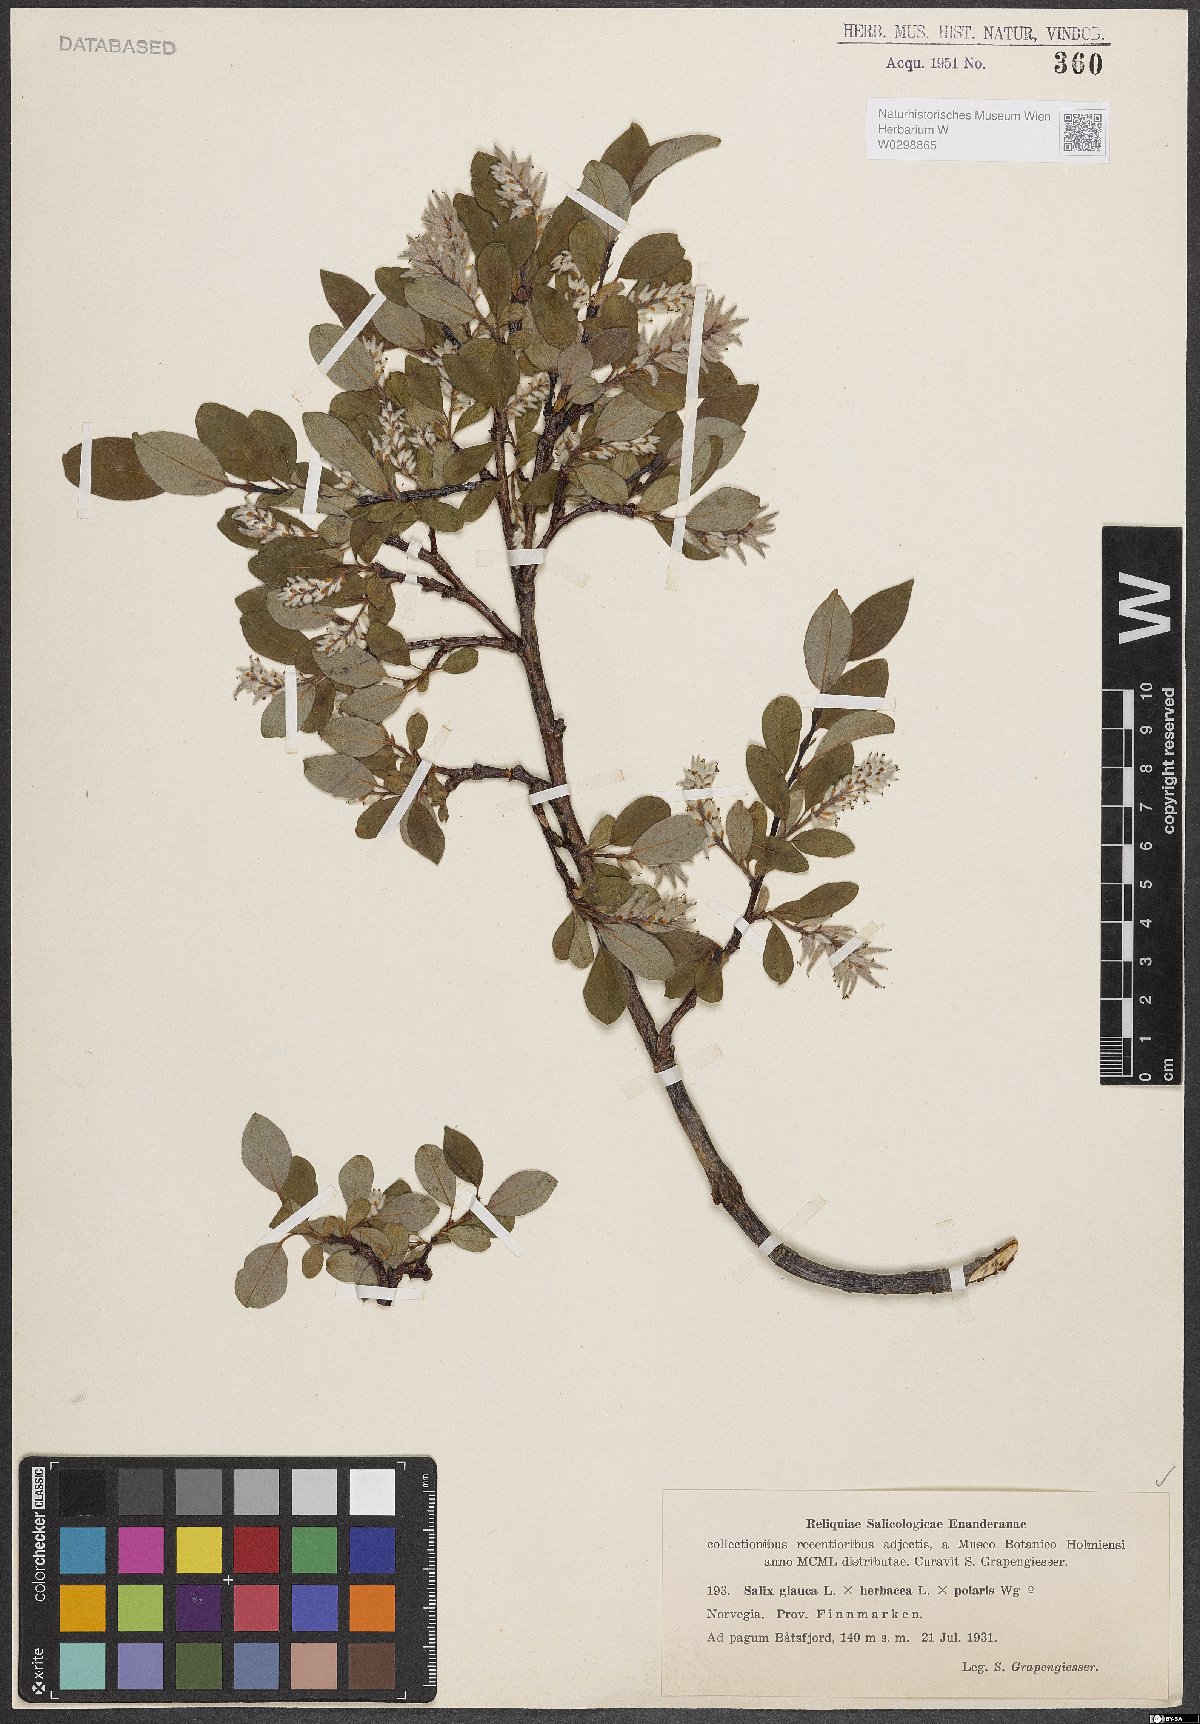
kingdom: Plantae
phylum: Tracheophyta
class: Magnoliopsida
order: Malpighiales
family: Salicaceae
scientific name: Salicaceae
